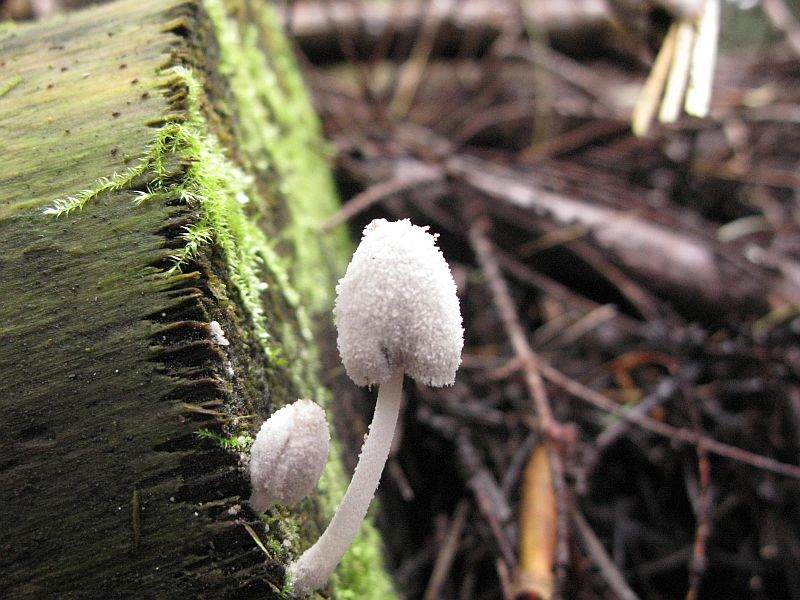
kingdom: Fungi
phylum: Basidiomycota
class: Agaricomycetes
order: Agaricales
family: Psathyrellaceae
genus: Coprinopsis
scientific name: Coprinopsis laanii
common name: stub-blækhat
